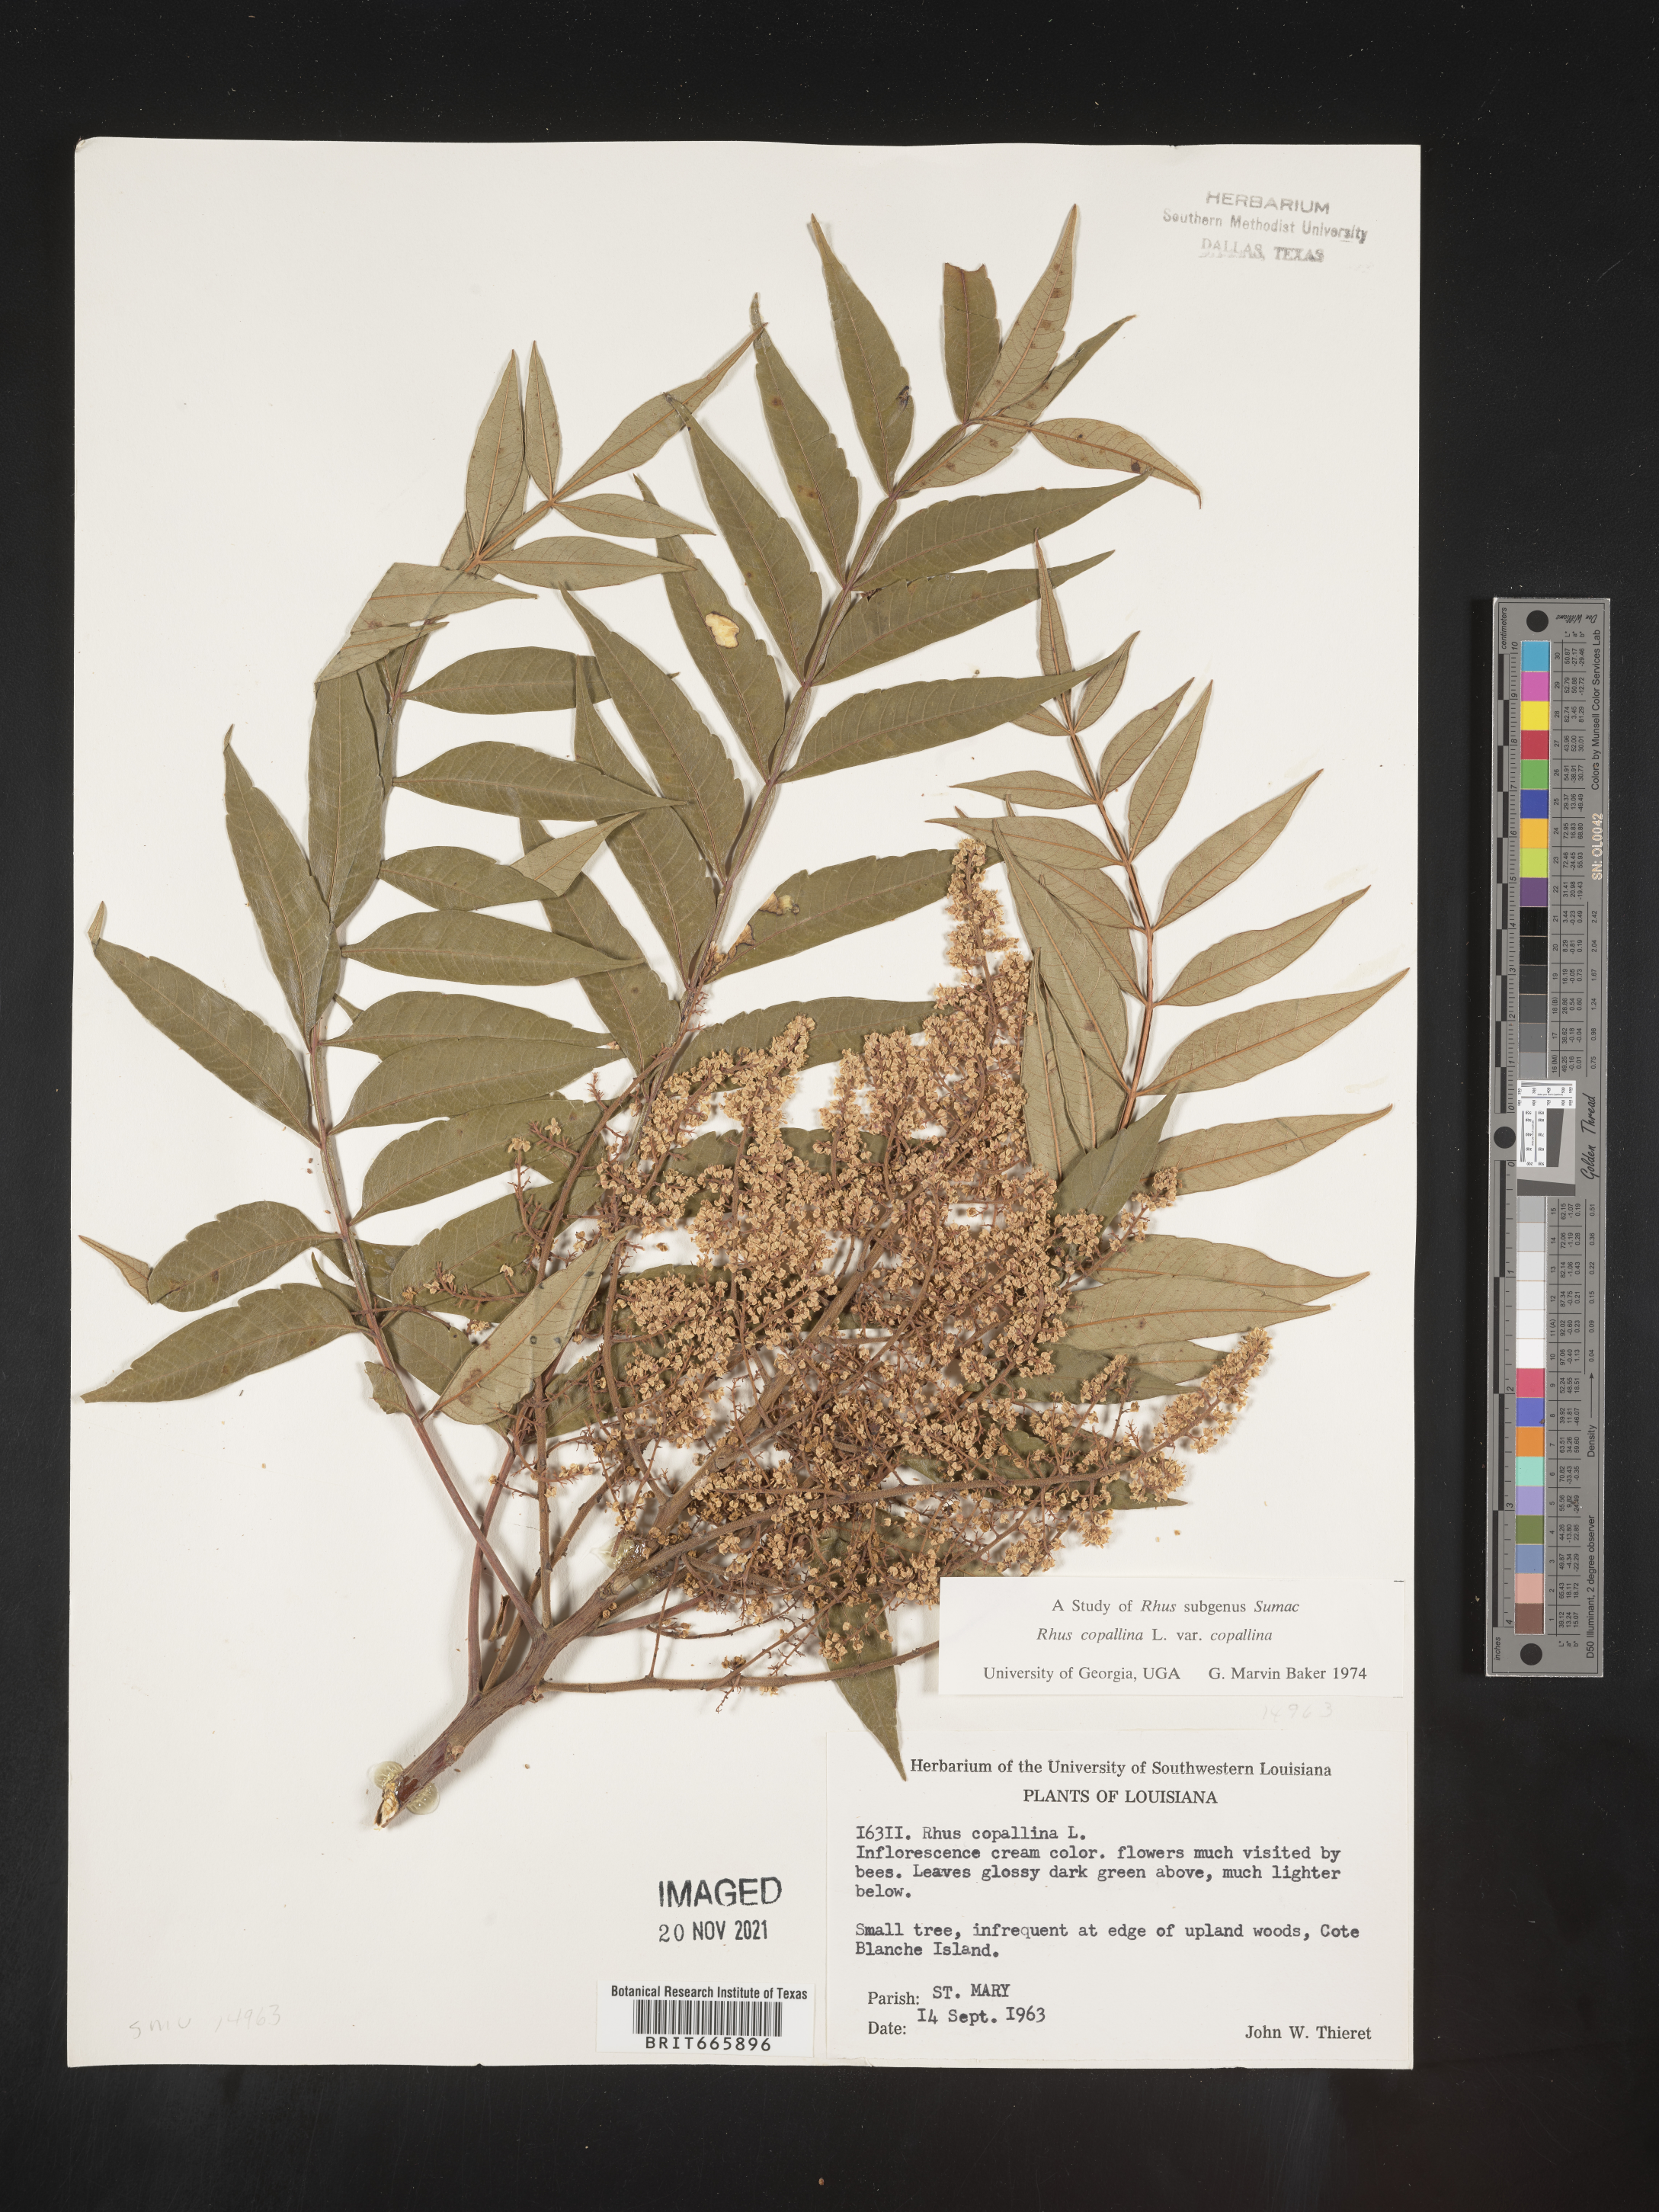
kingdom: Plantae
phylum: Tracheophyta
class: Magnoliopsida
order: Sapindales
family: Anacardiaceae
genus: Rhus
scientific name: Rhus copallina
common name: Shining sumac
